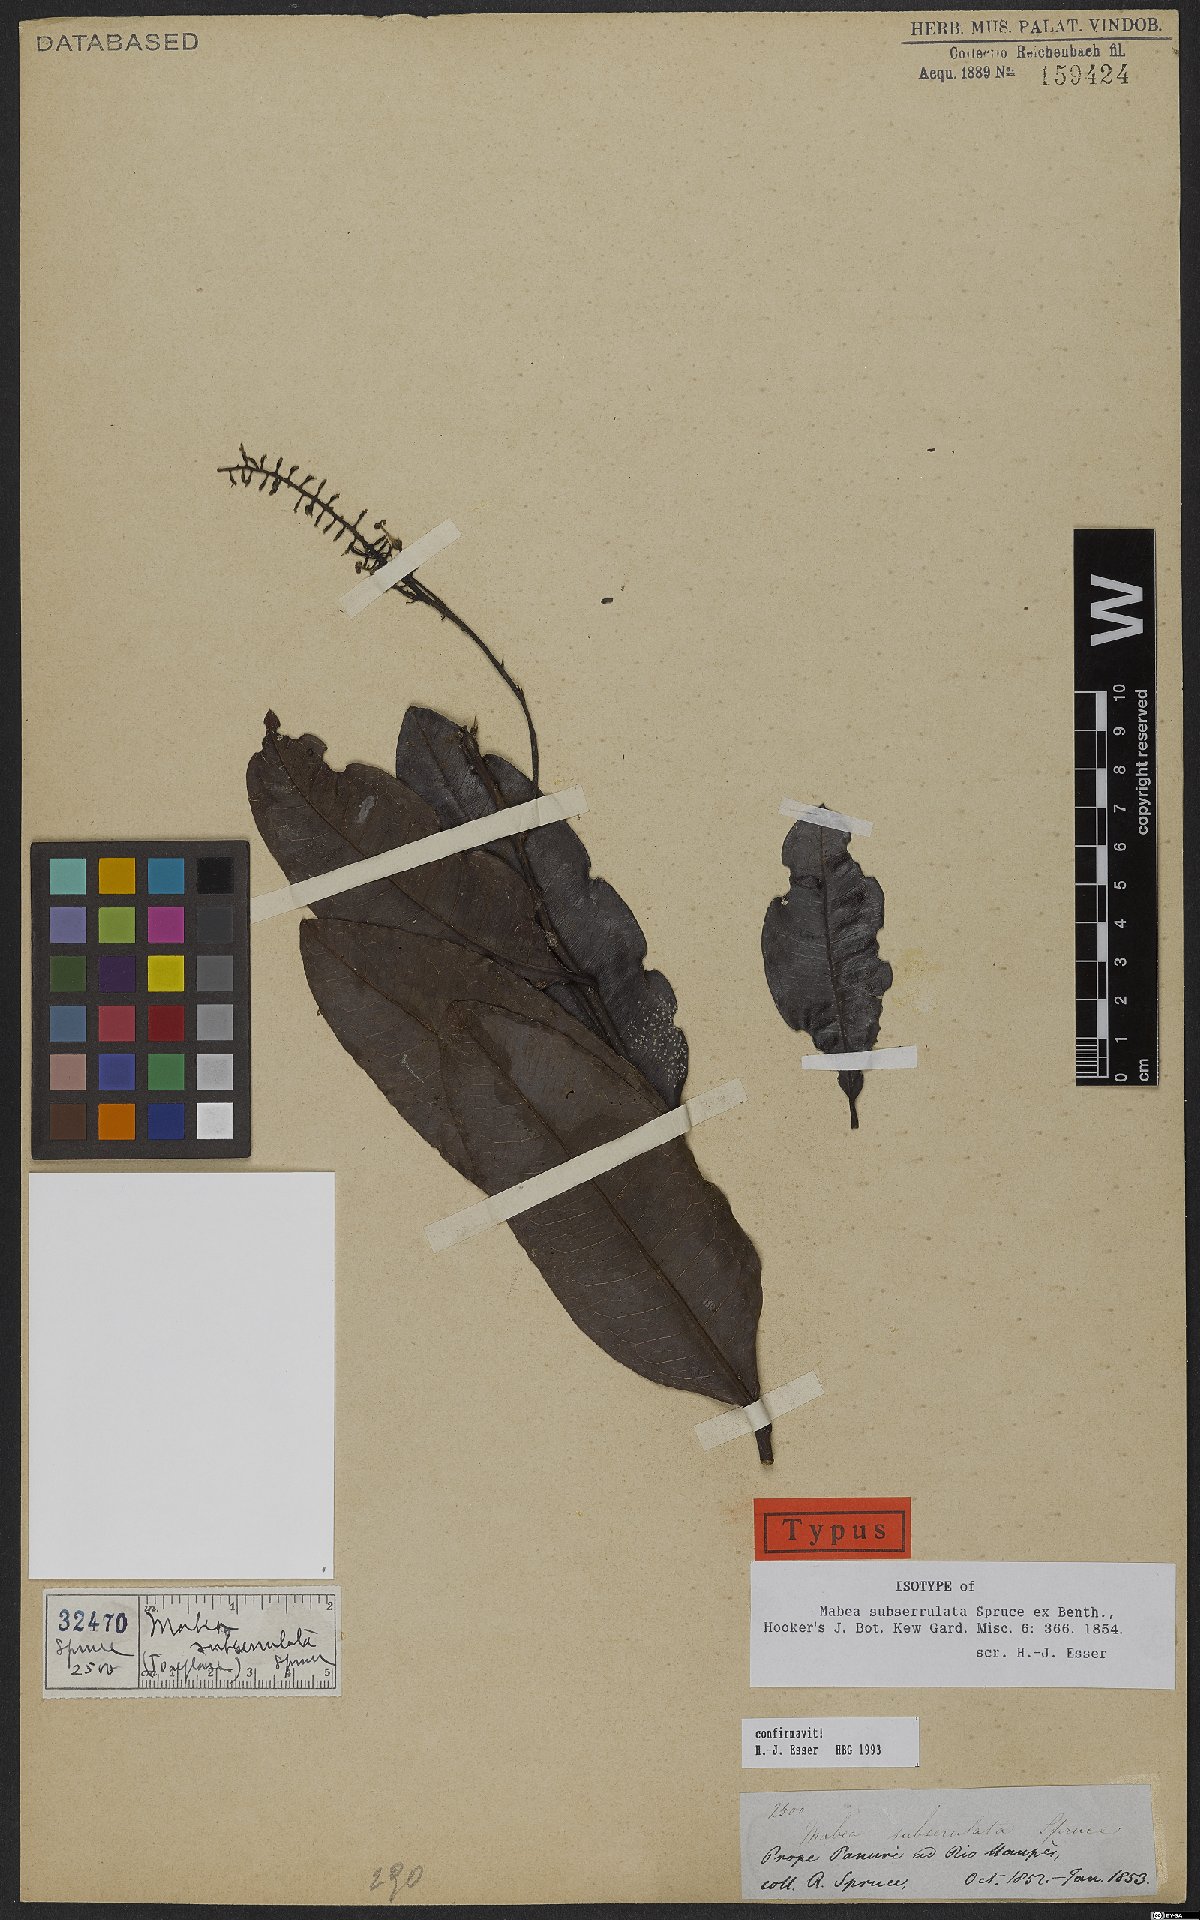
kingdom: Plantae
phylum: Tracheophyta
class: Magnoliopsida
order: Malpighiales
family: Euphorbiaceae
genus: Mabea
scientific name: Mabea subserrulata
